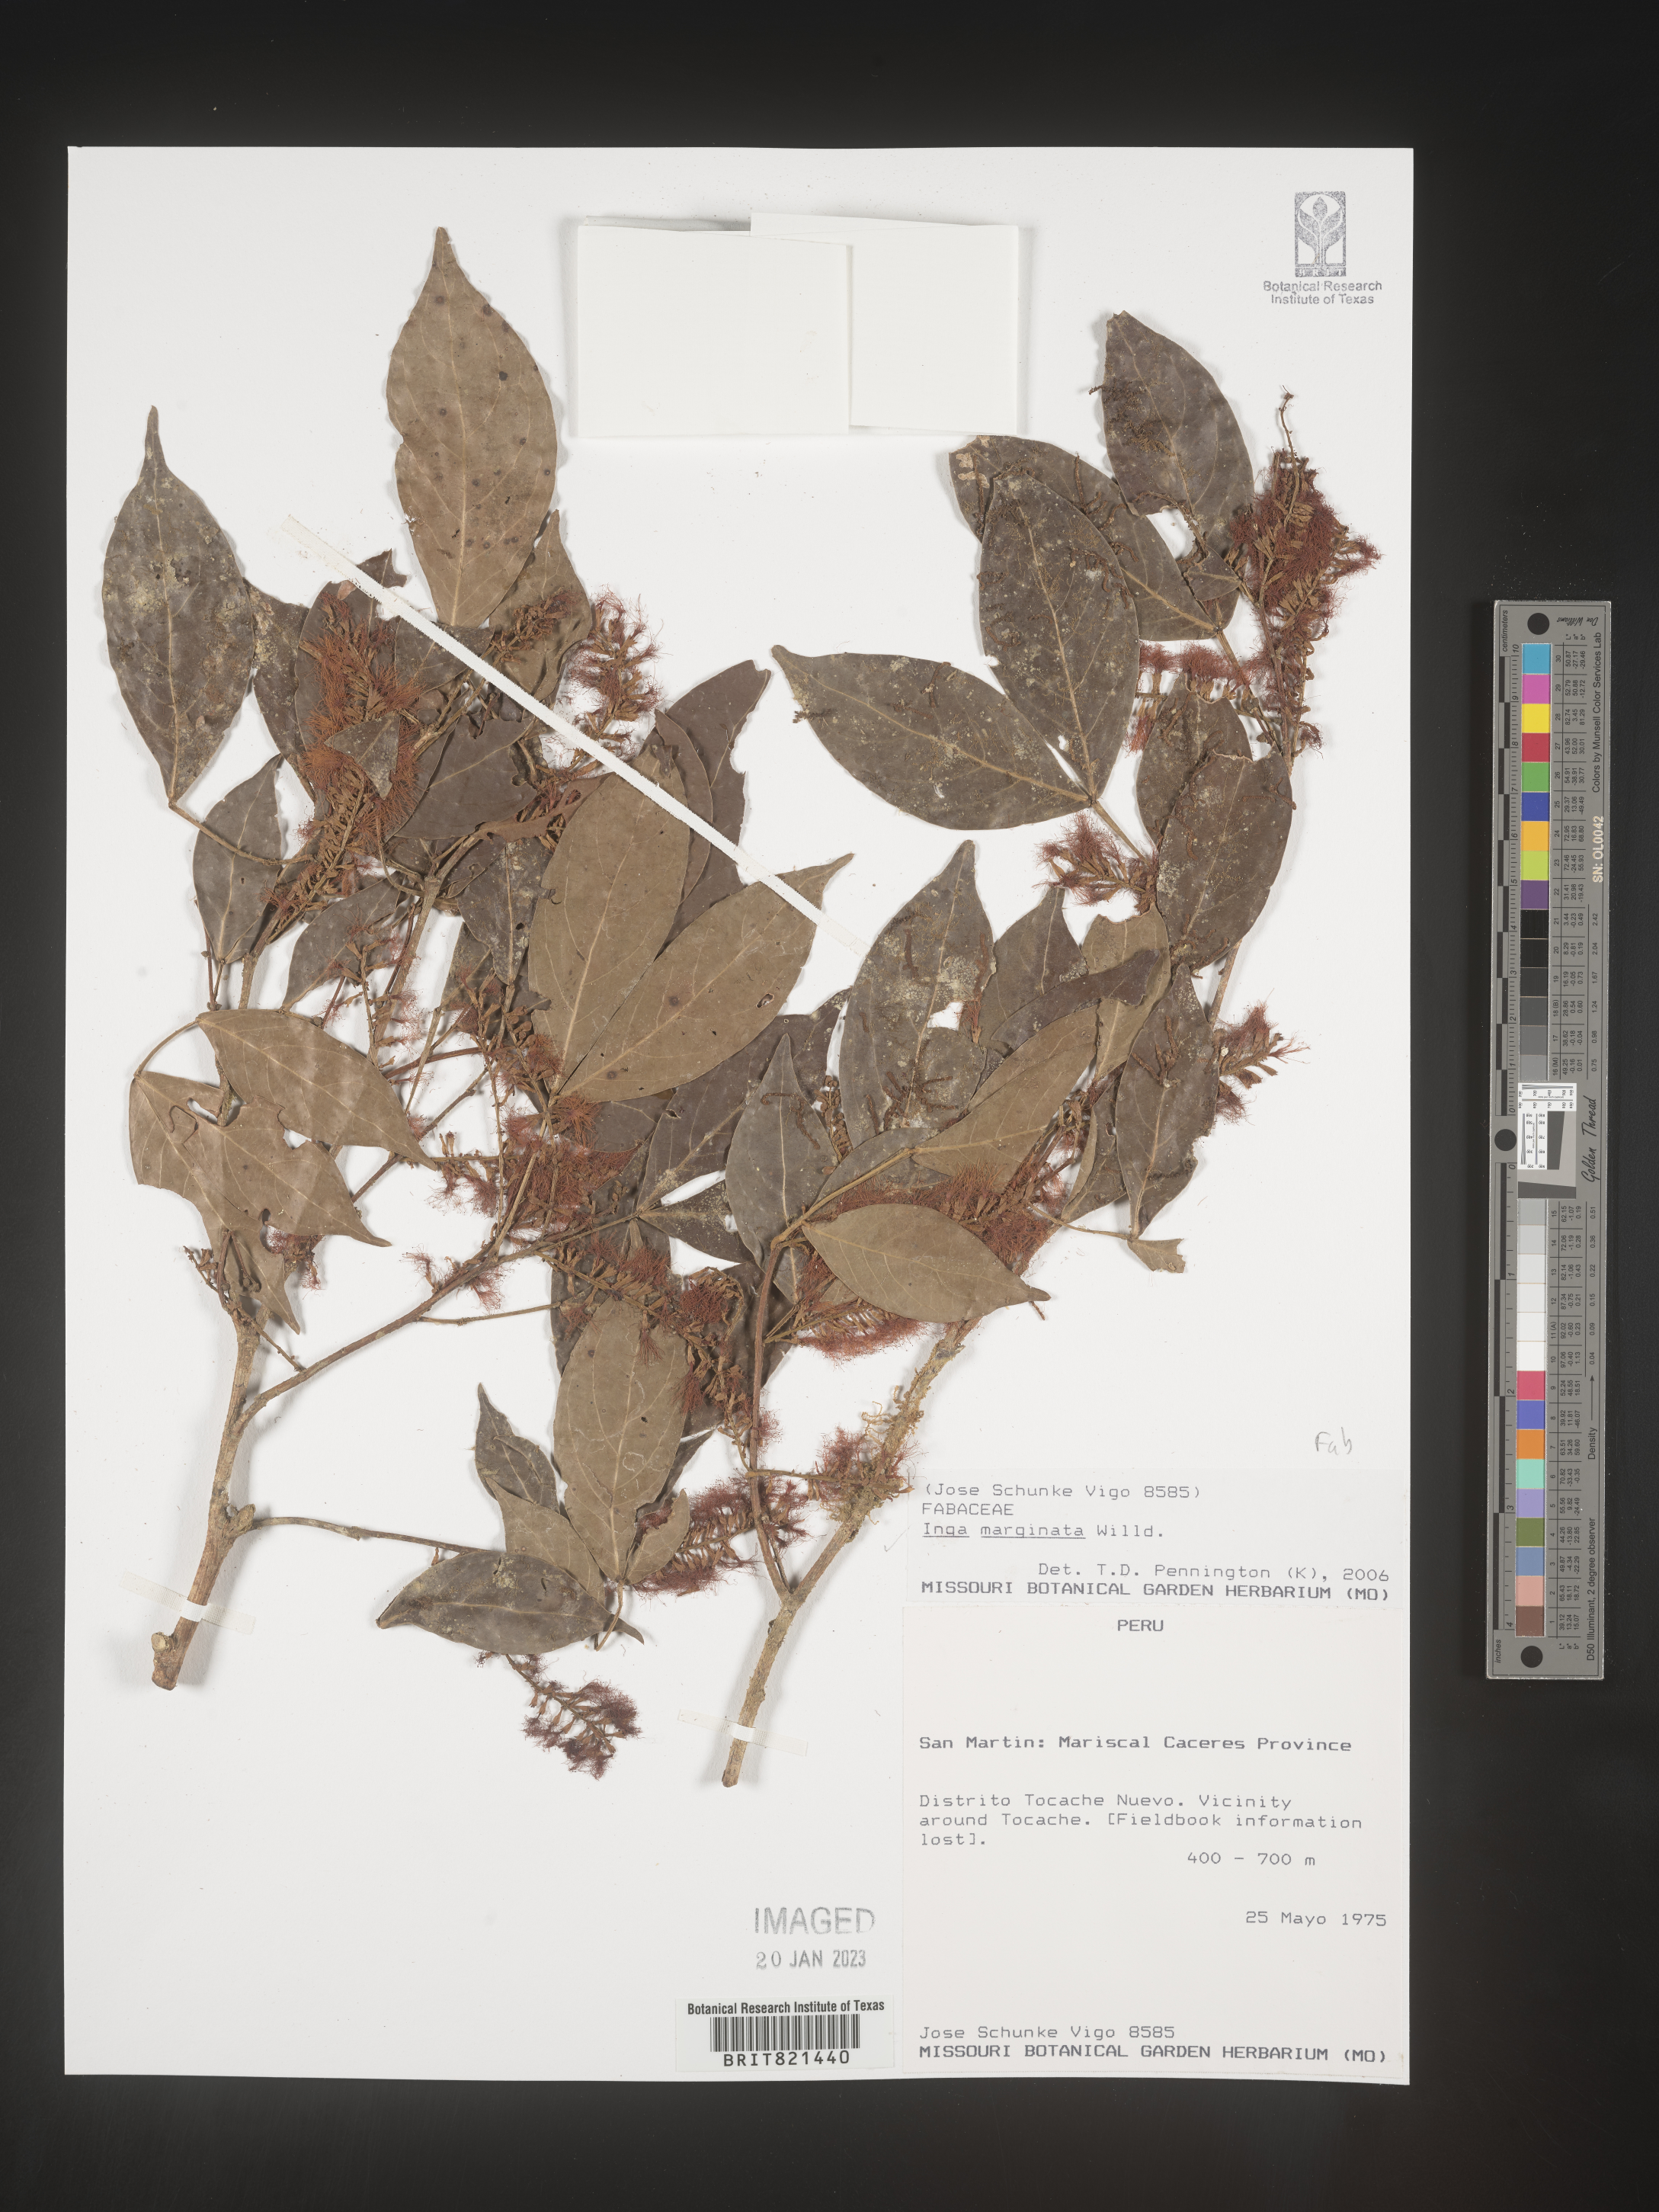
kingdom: Plantae
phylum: Tracheophyta
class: Magnoliopsida
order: Fabales
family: Fabaceae
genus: Inga
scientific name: Inga
